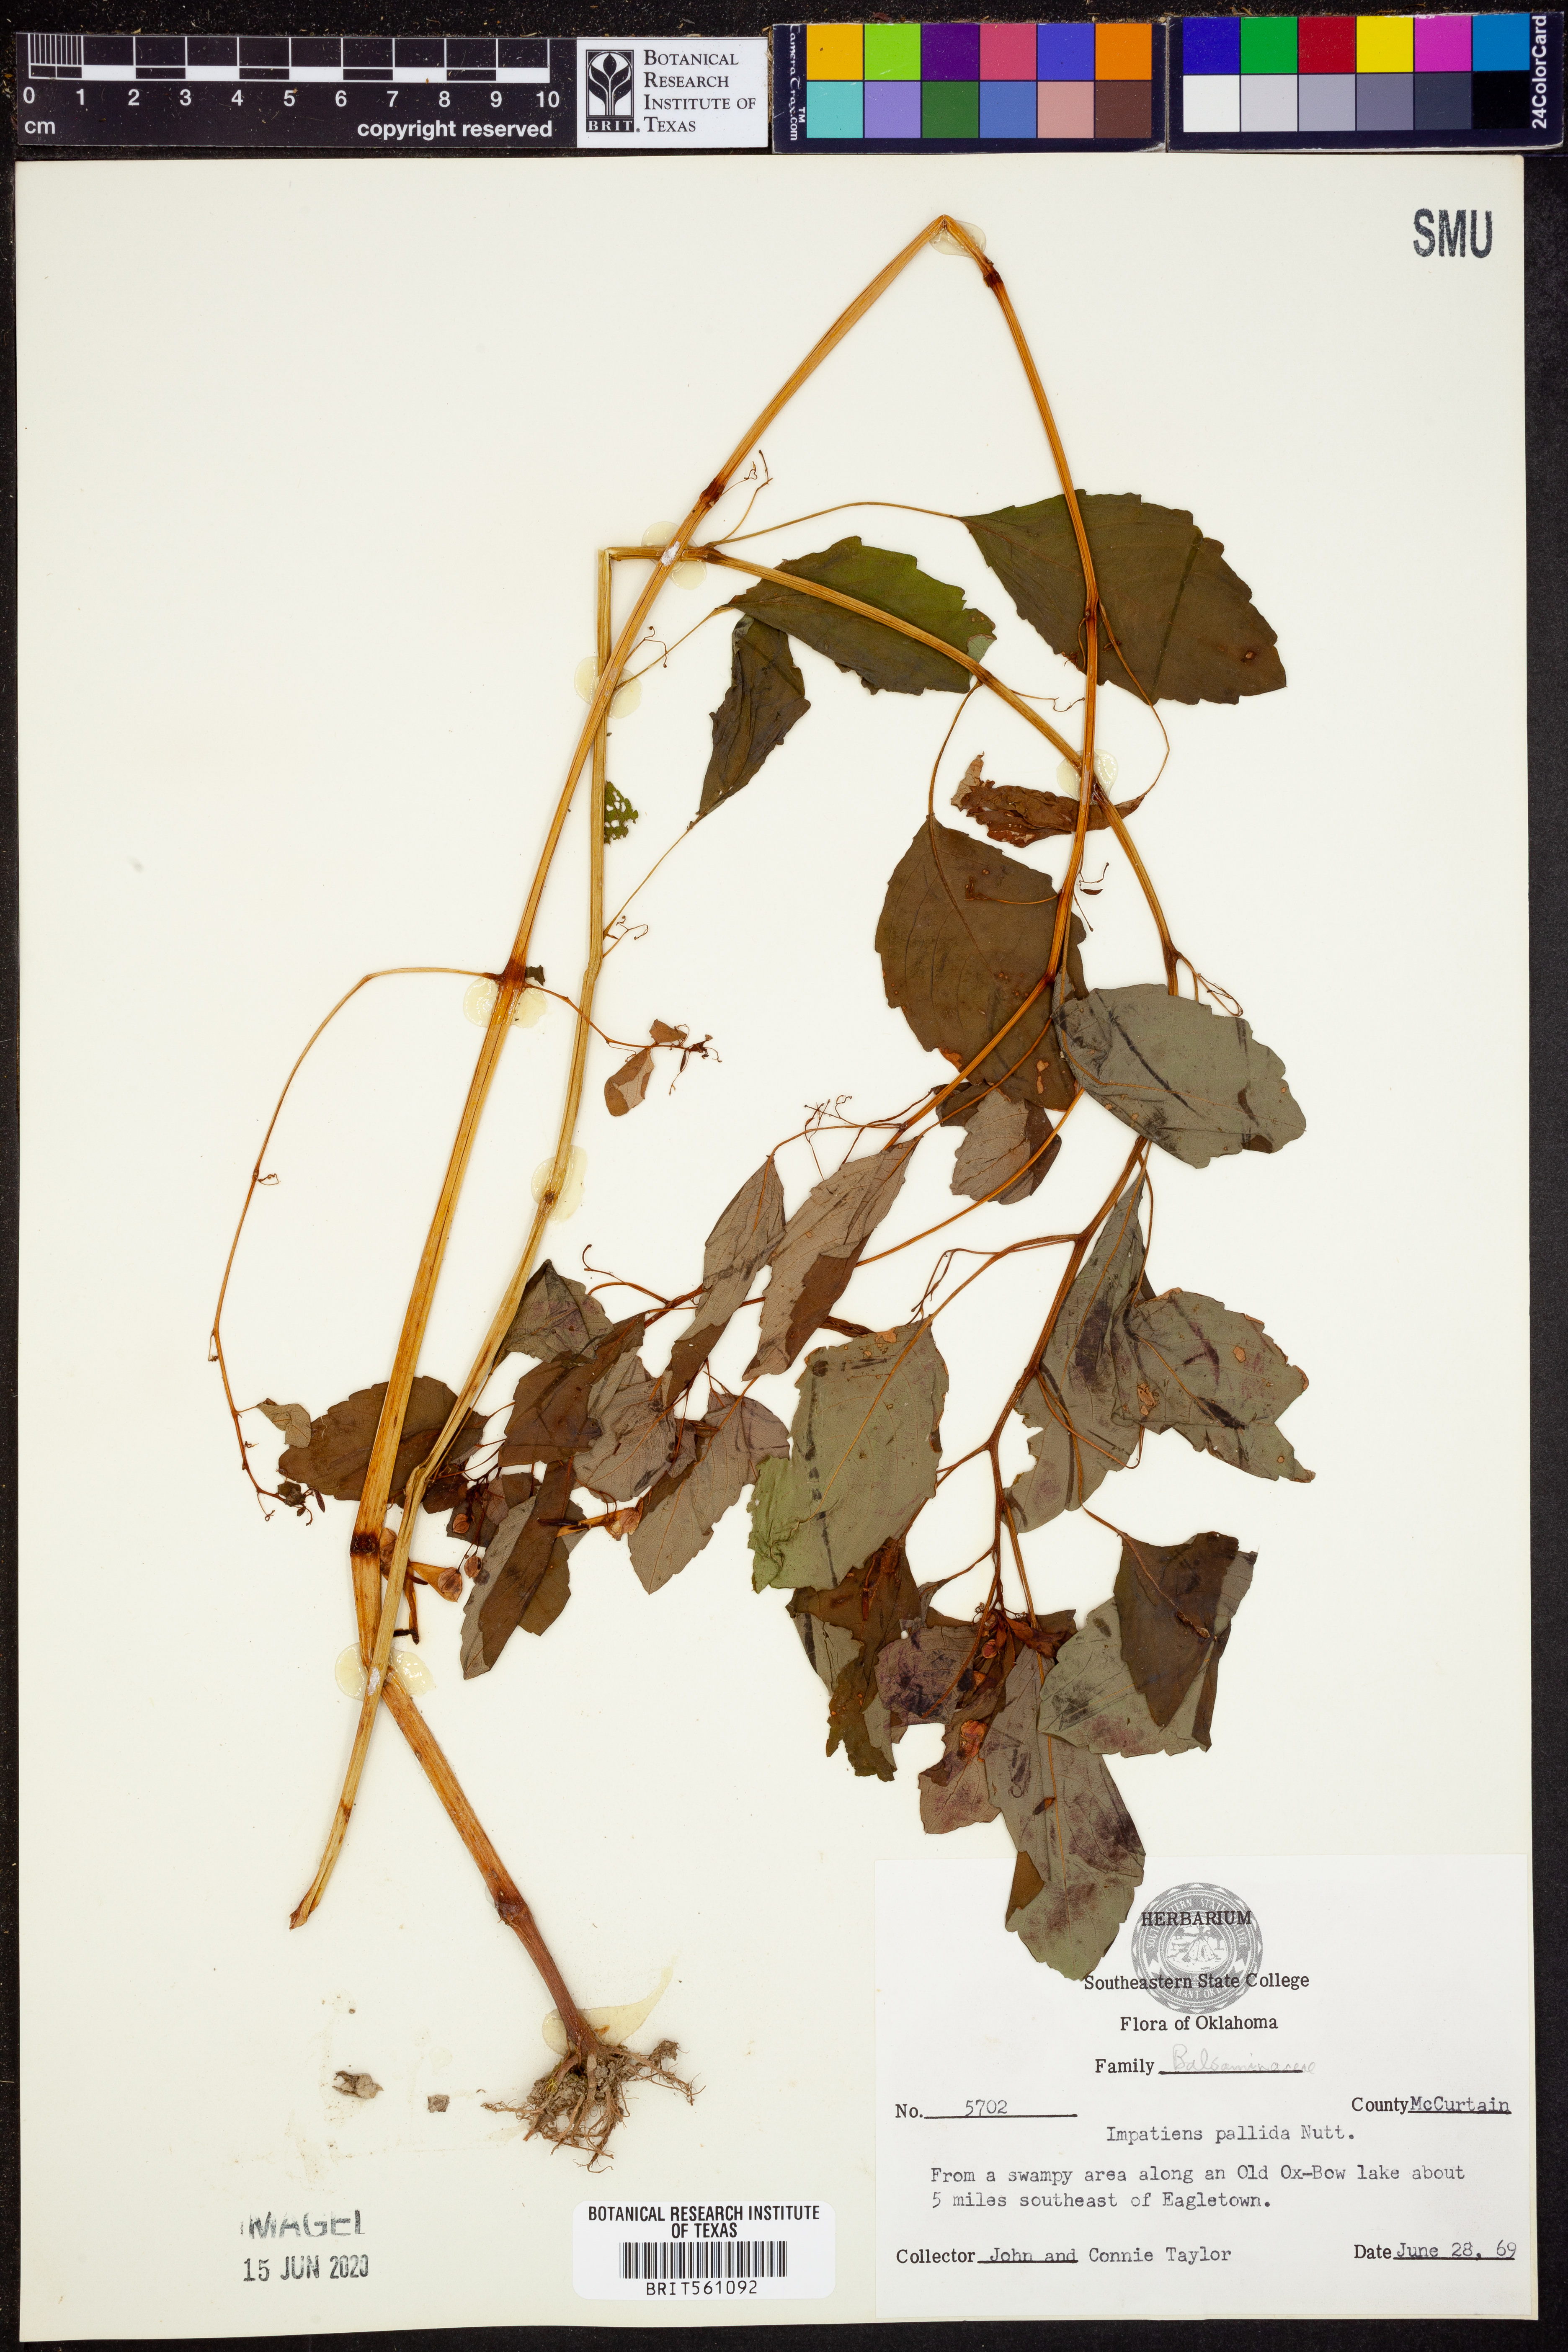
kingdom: Plantae
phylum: Tracheophyta
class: Magnoliopsida
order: Ericales
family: Balsaminaceae
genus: Impatiens
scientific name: Impatiens pallida
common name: Pale snapweed
